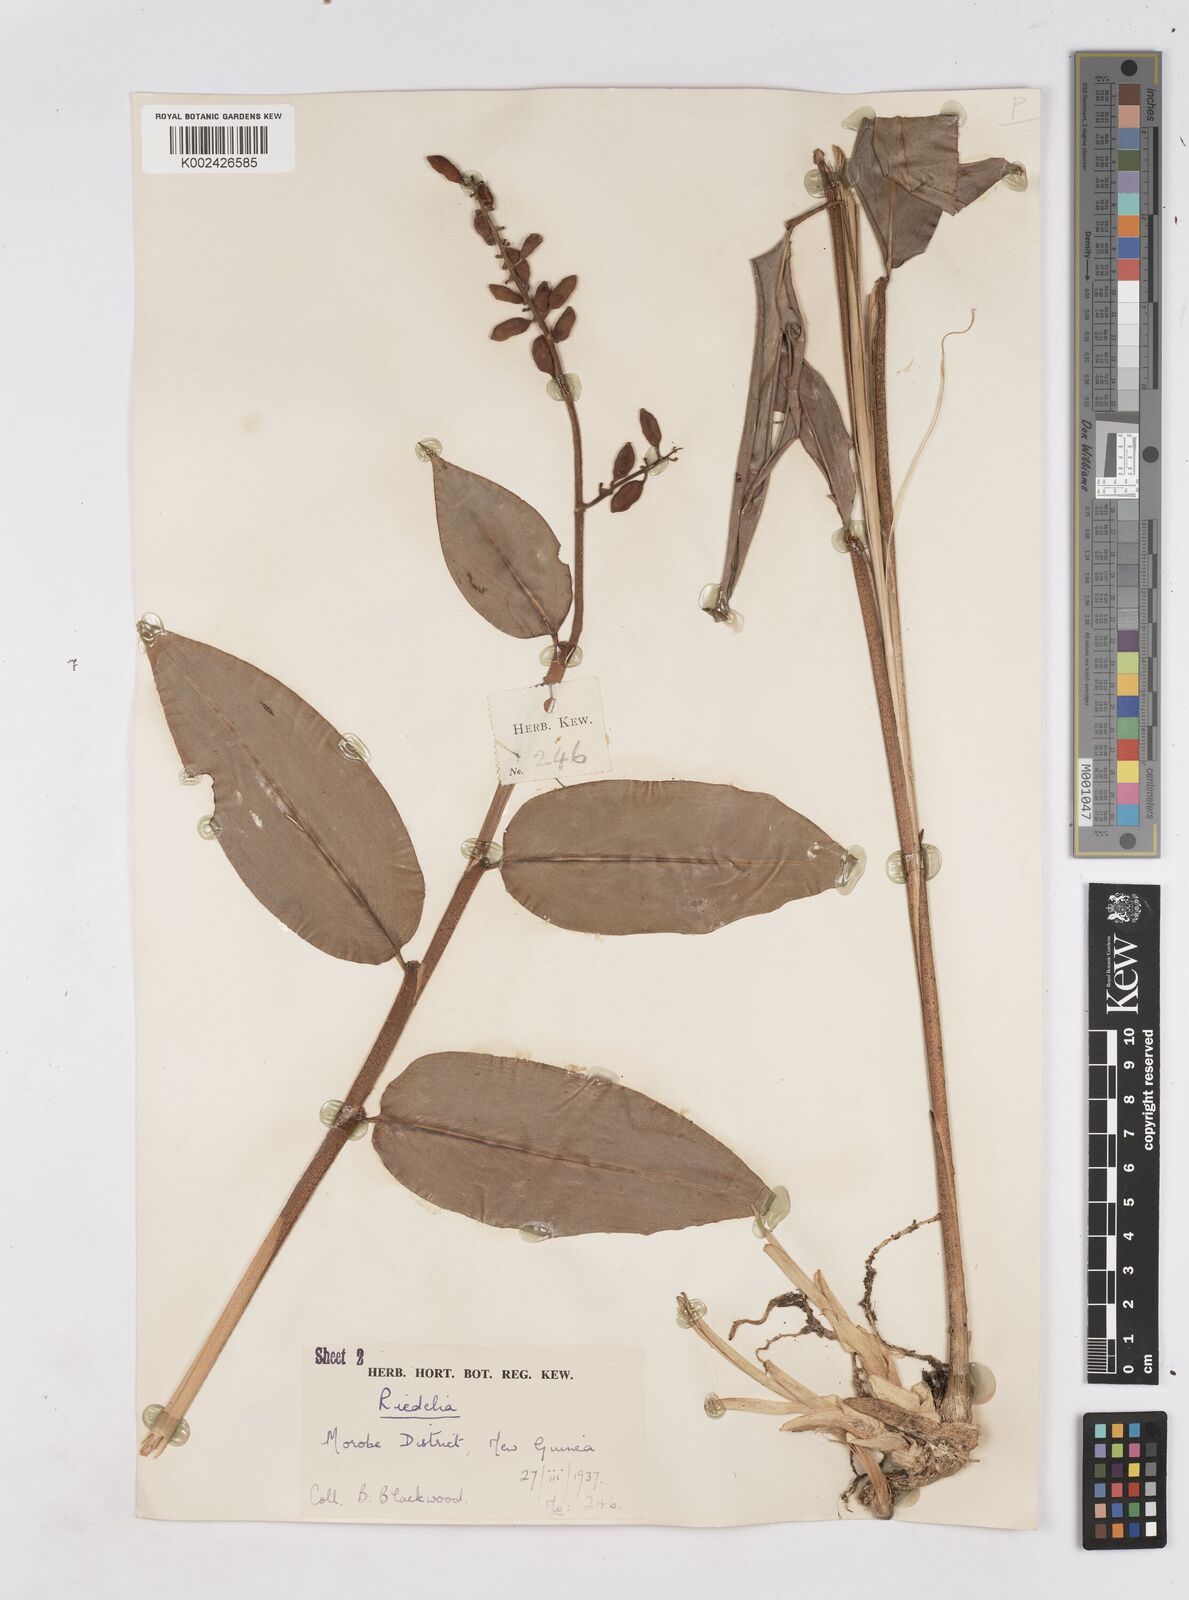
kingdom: Plantae
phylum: Tracheophyta
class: Liliopsida
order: Zingiberales
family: Zingiberaceae
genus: Riedelia
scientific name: Riedelia
